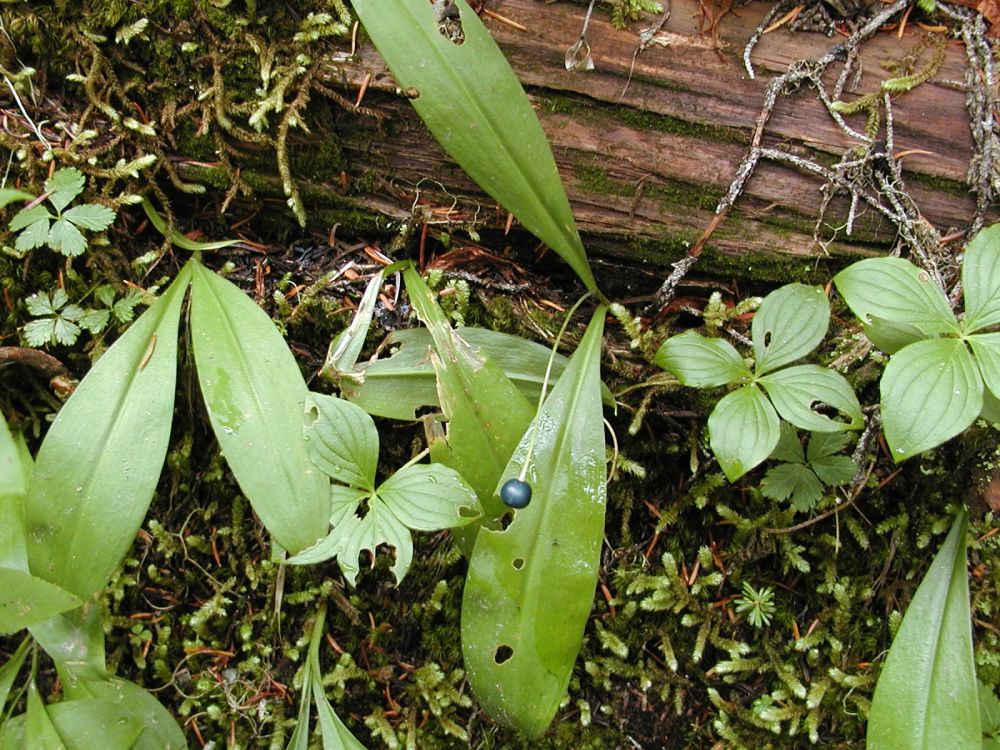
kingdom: Plantae
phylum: Tracheophyta
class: Liliopsida
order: Liliales
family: Liliaceae
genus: Clintonia
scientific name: Clintonia uniflora
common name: Queen's cup
